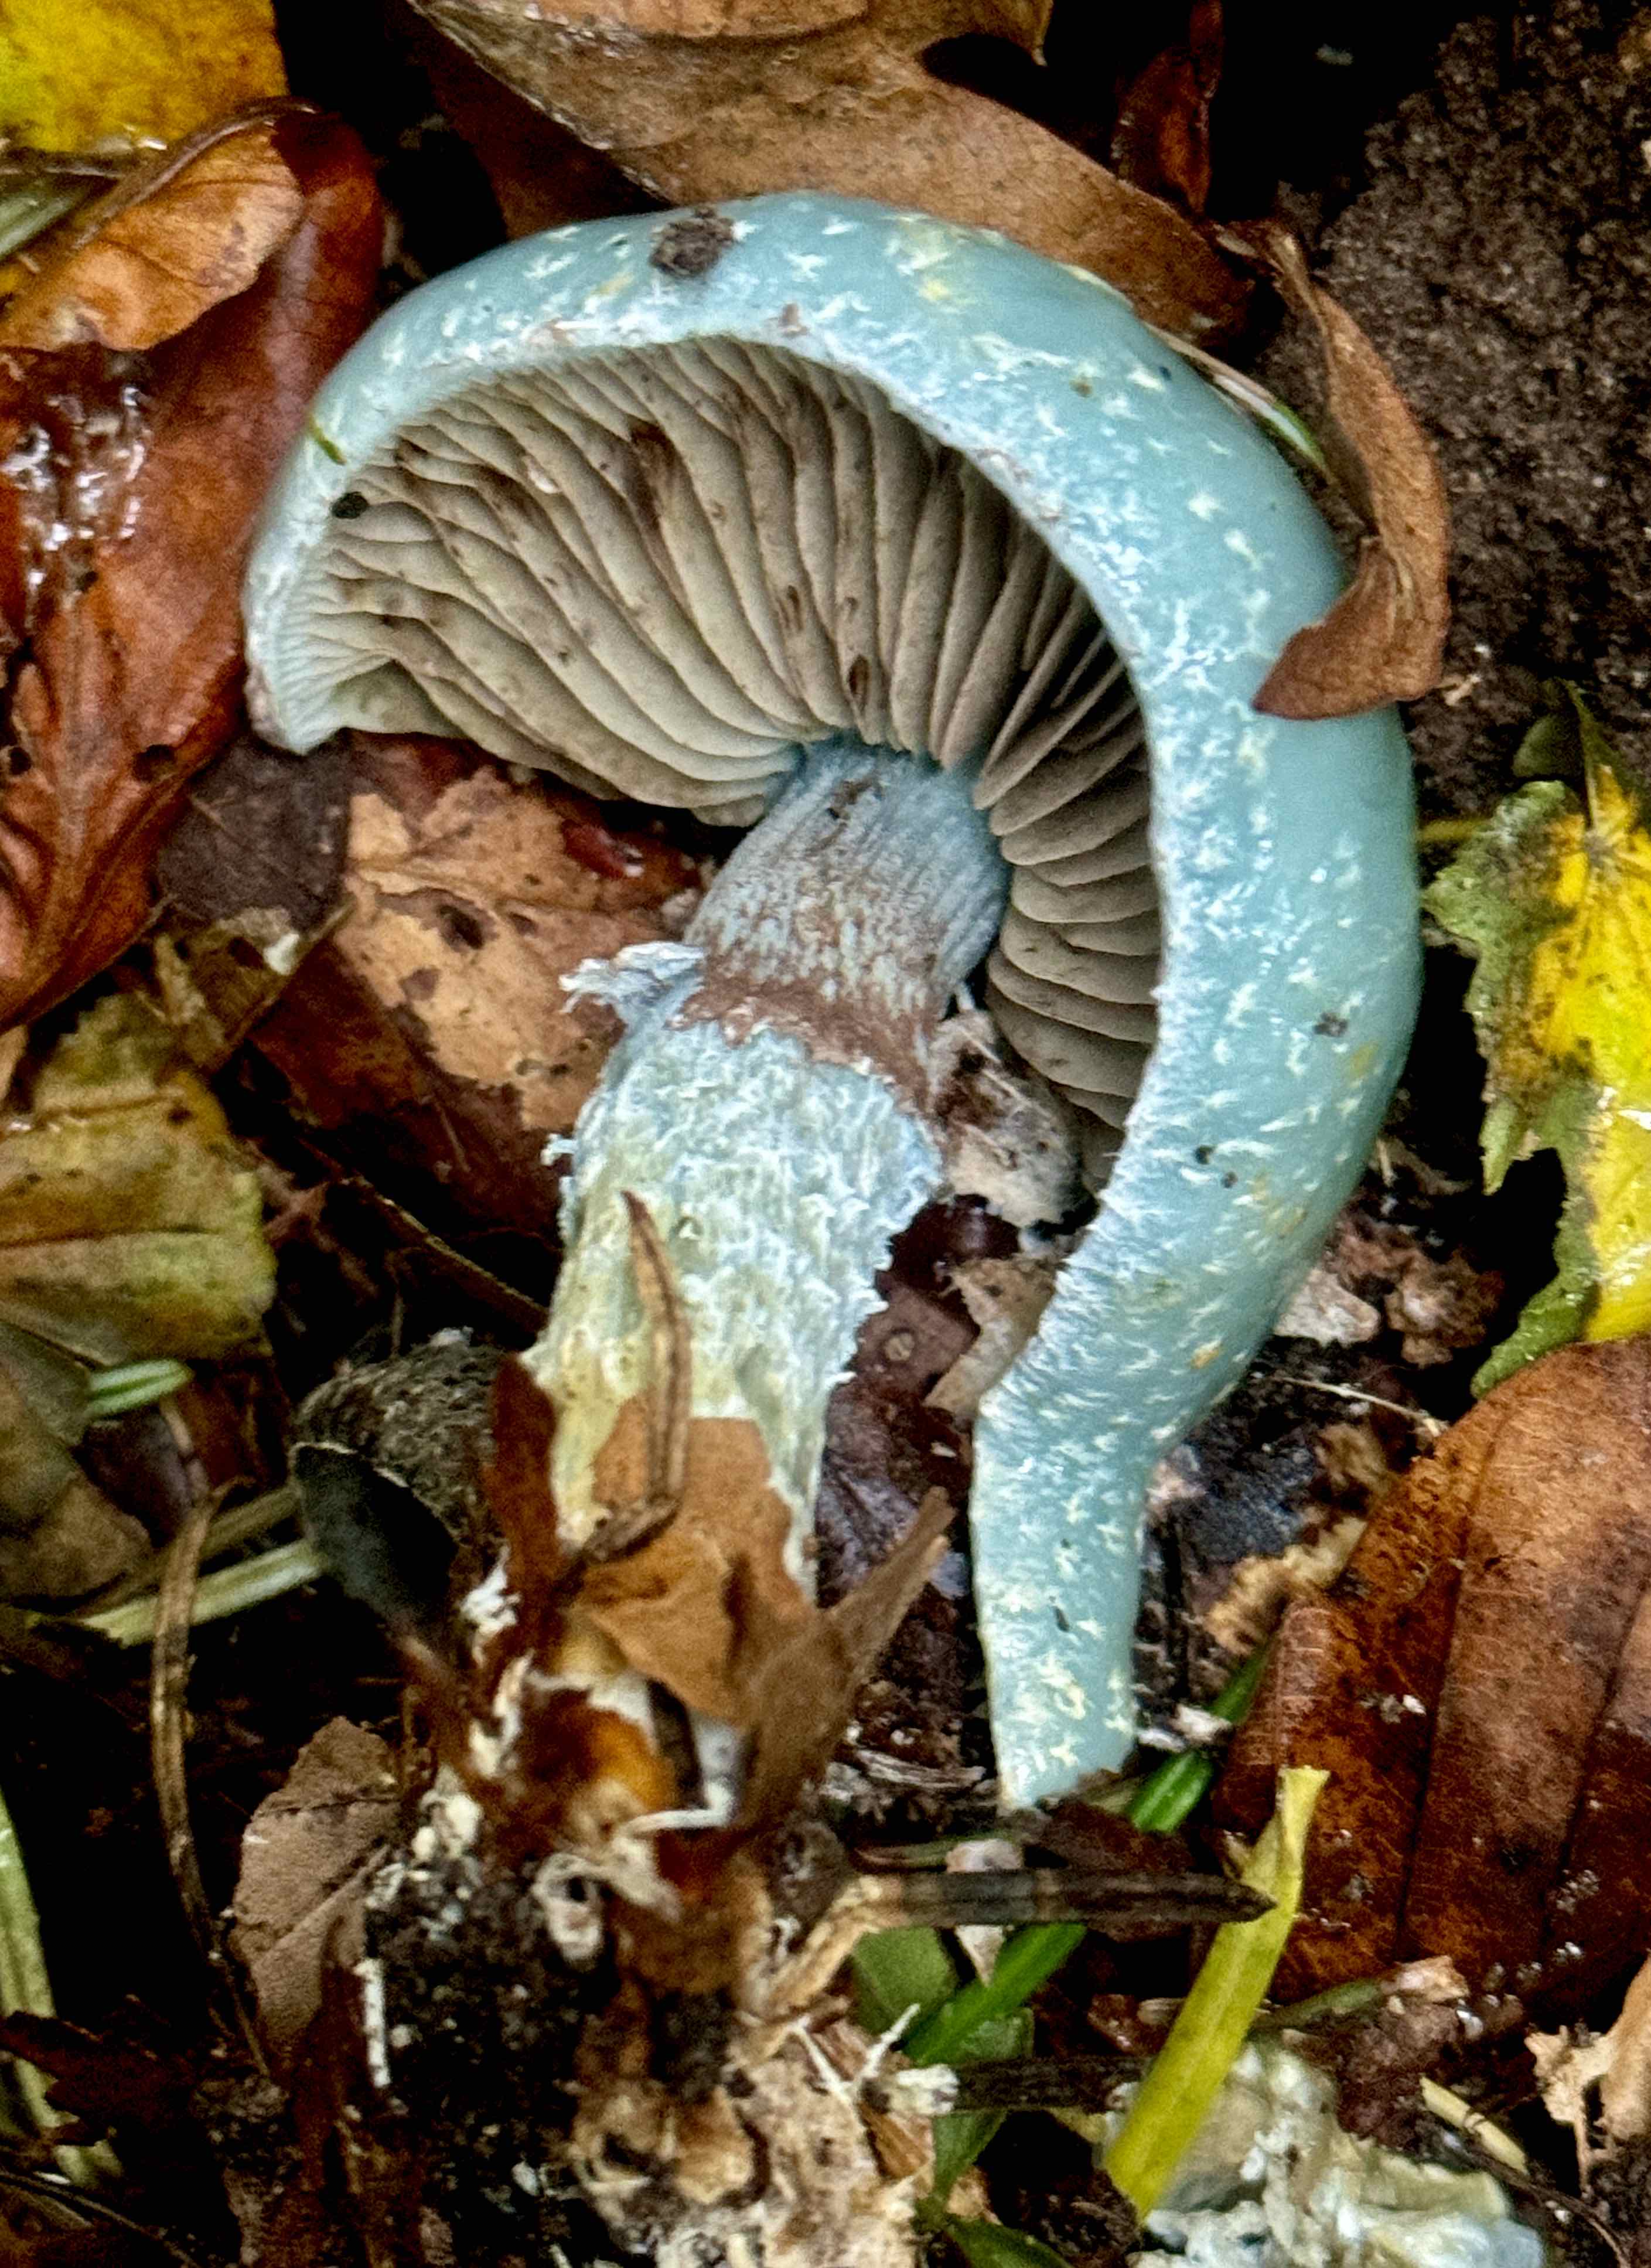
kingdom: Fungi
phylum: Basidiomycota
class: Agaricomycetes
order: Agaricales
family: Strophariaceae
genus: Stropharia
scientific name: Stropharia aeruginosa
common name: spanskgrøn bredblad
